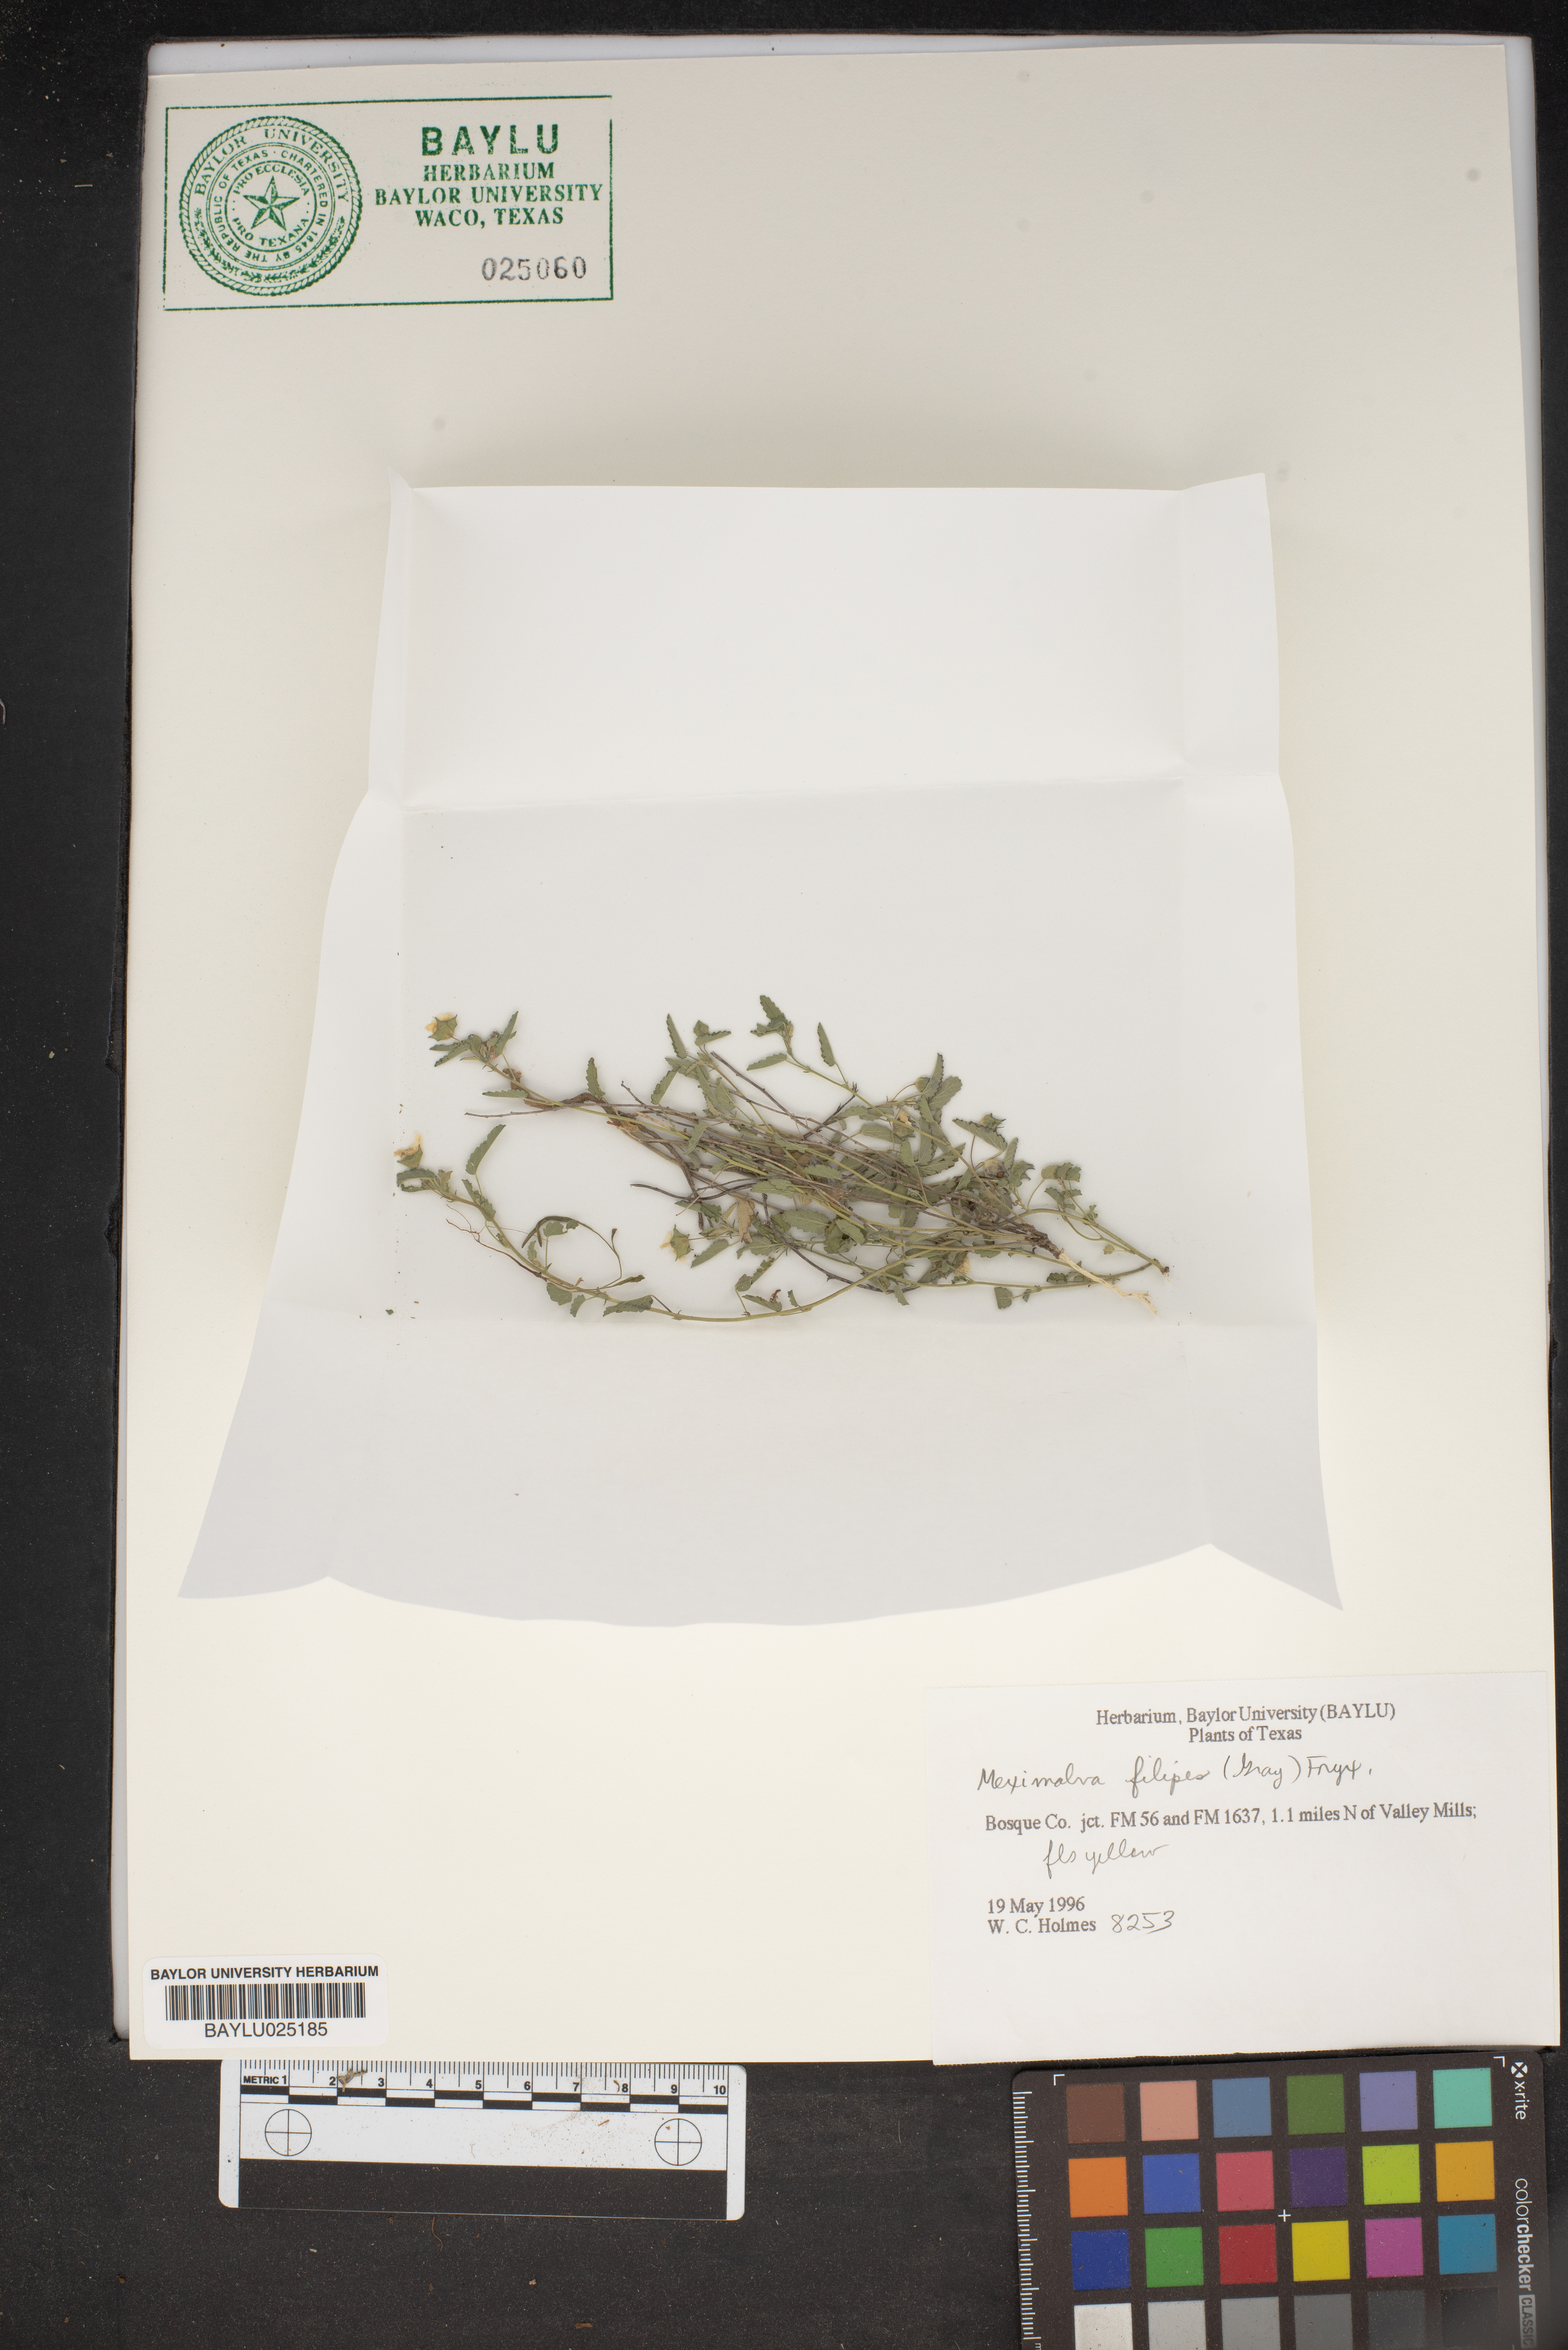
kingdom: Plantae
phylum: Tracheophyta
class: Magnoliopsida
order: Malvales
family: Malvaceae
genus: Meximalva
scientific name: Meximalva filipes
